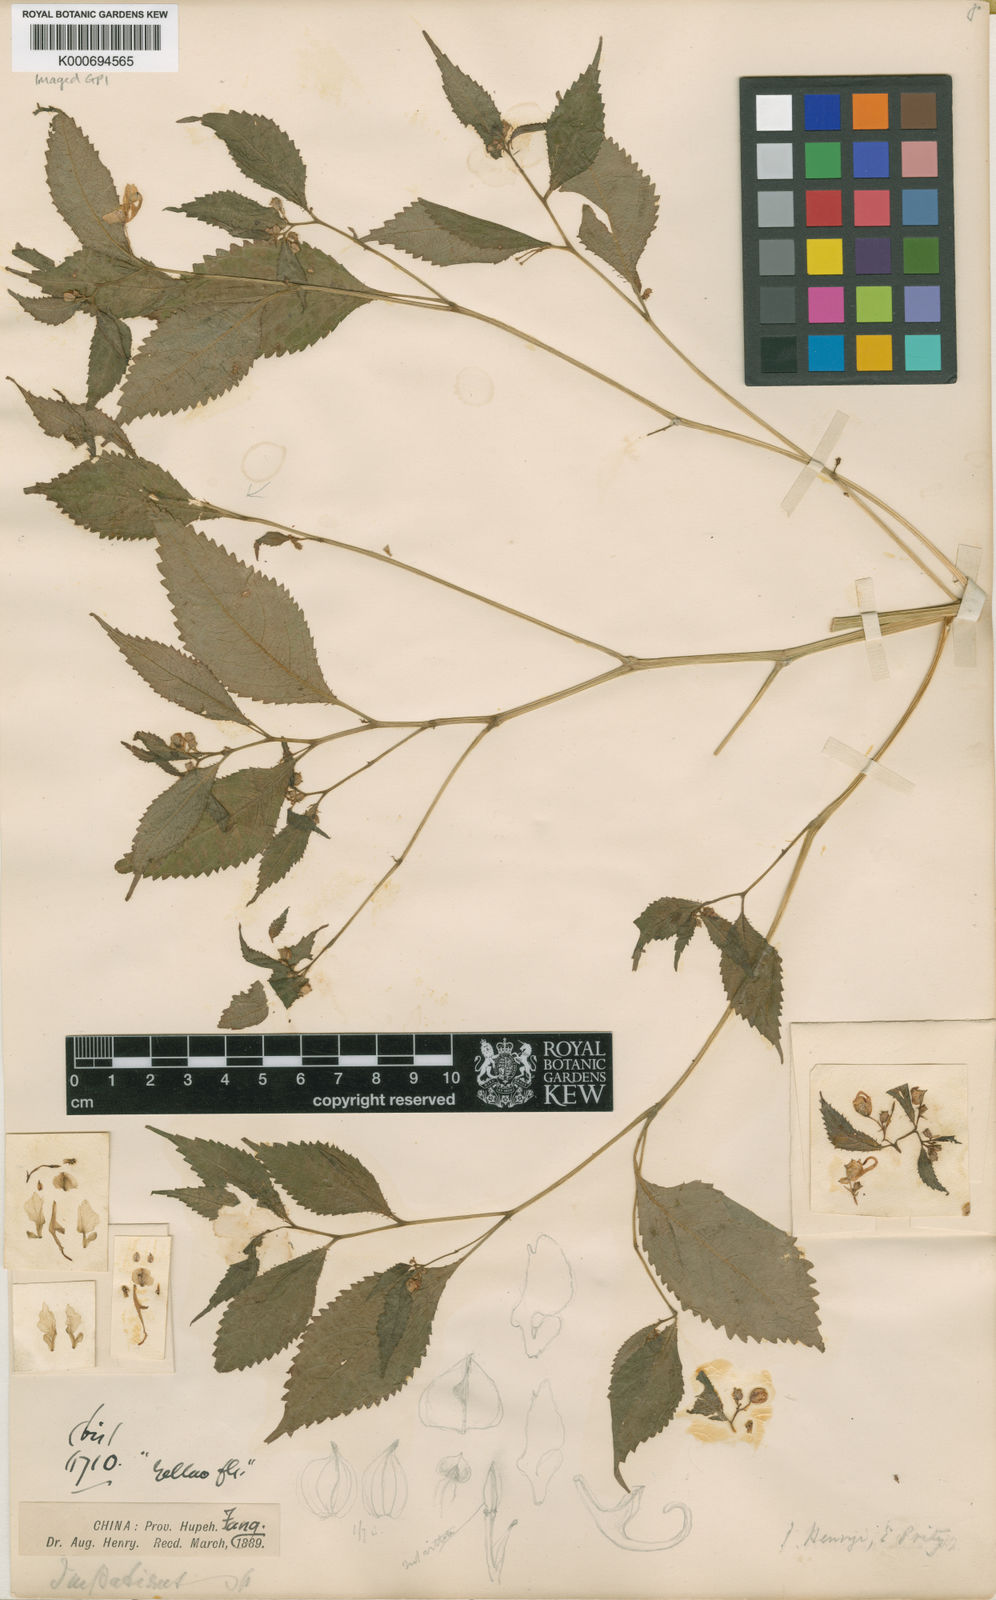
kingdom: Plantae
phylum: Tracheophyta
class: Magnoliopsida
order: Ericales
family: Balsaminaceae
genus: Impatiens
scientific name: Impatiens henryi
